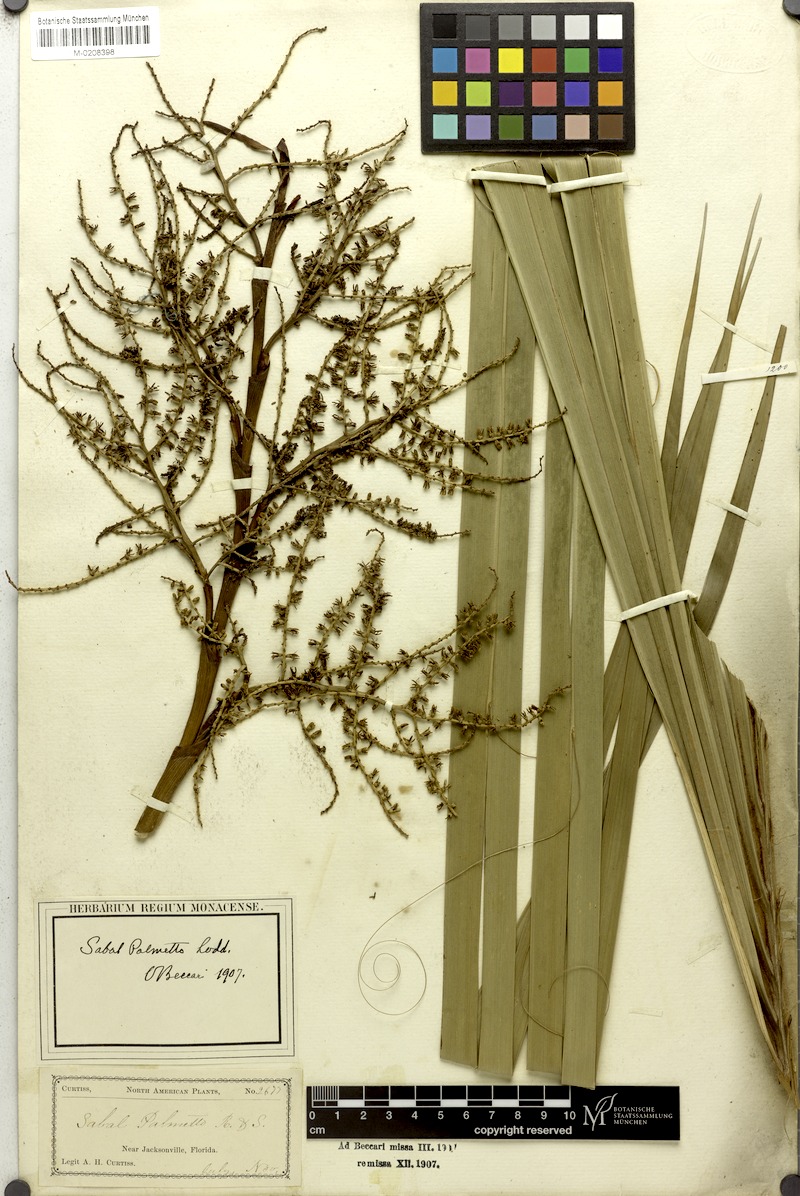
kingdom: Plantae
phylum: Tracheophyta
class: Liliopsida
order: Arecales
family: Arecaceae
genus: Sabal
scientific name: Sabal palmetto
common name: Blue palmetto
